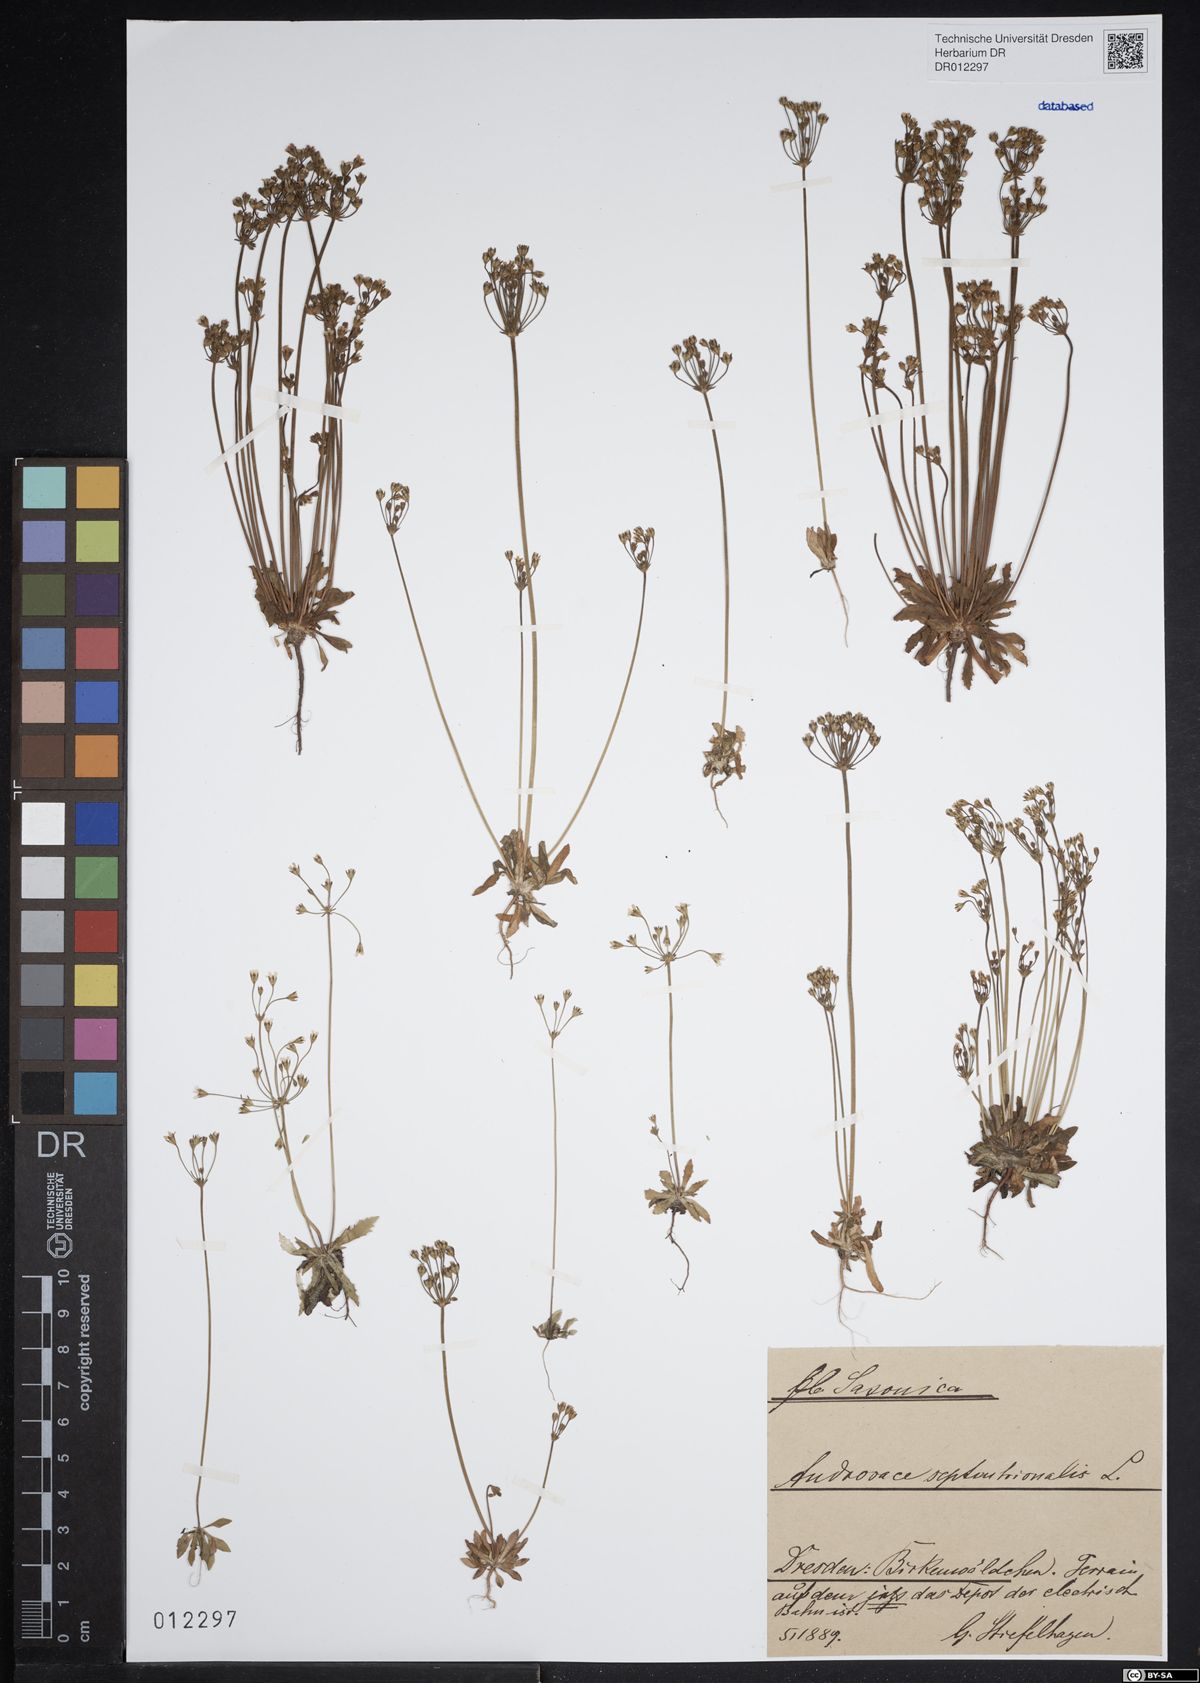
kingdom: Plantae
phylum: Tracheophyta
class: Magnoliopsida
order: Ericales
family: Primulaceae
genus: Androsace
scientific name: Androsace septentrionalis
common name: Hairy northern fairy-candelabra
